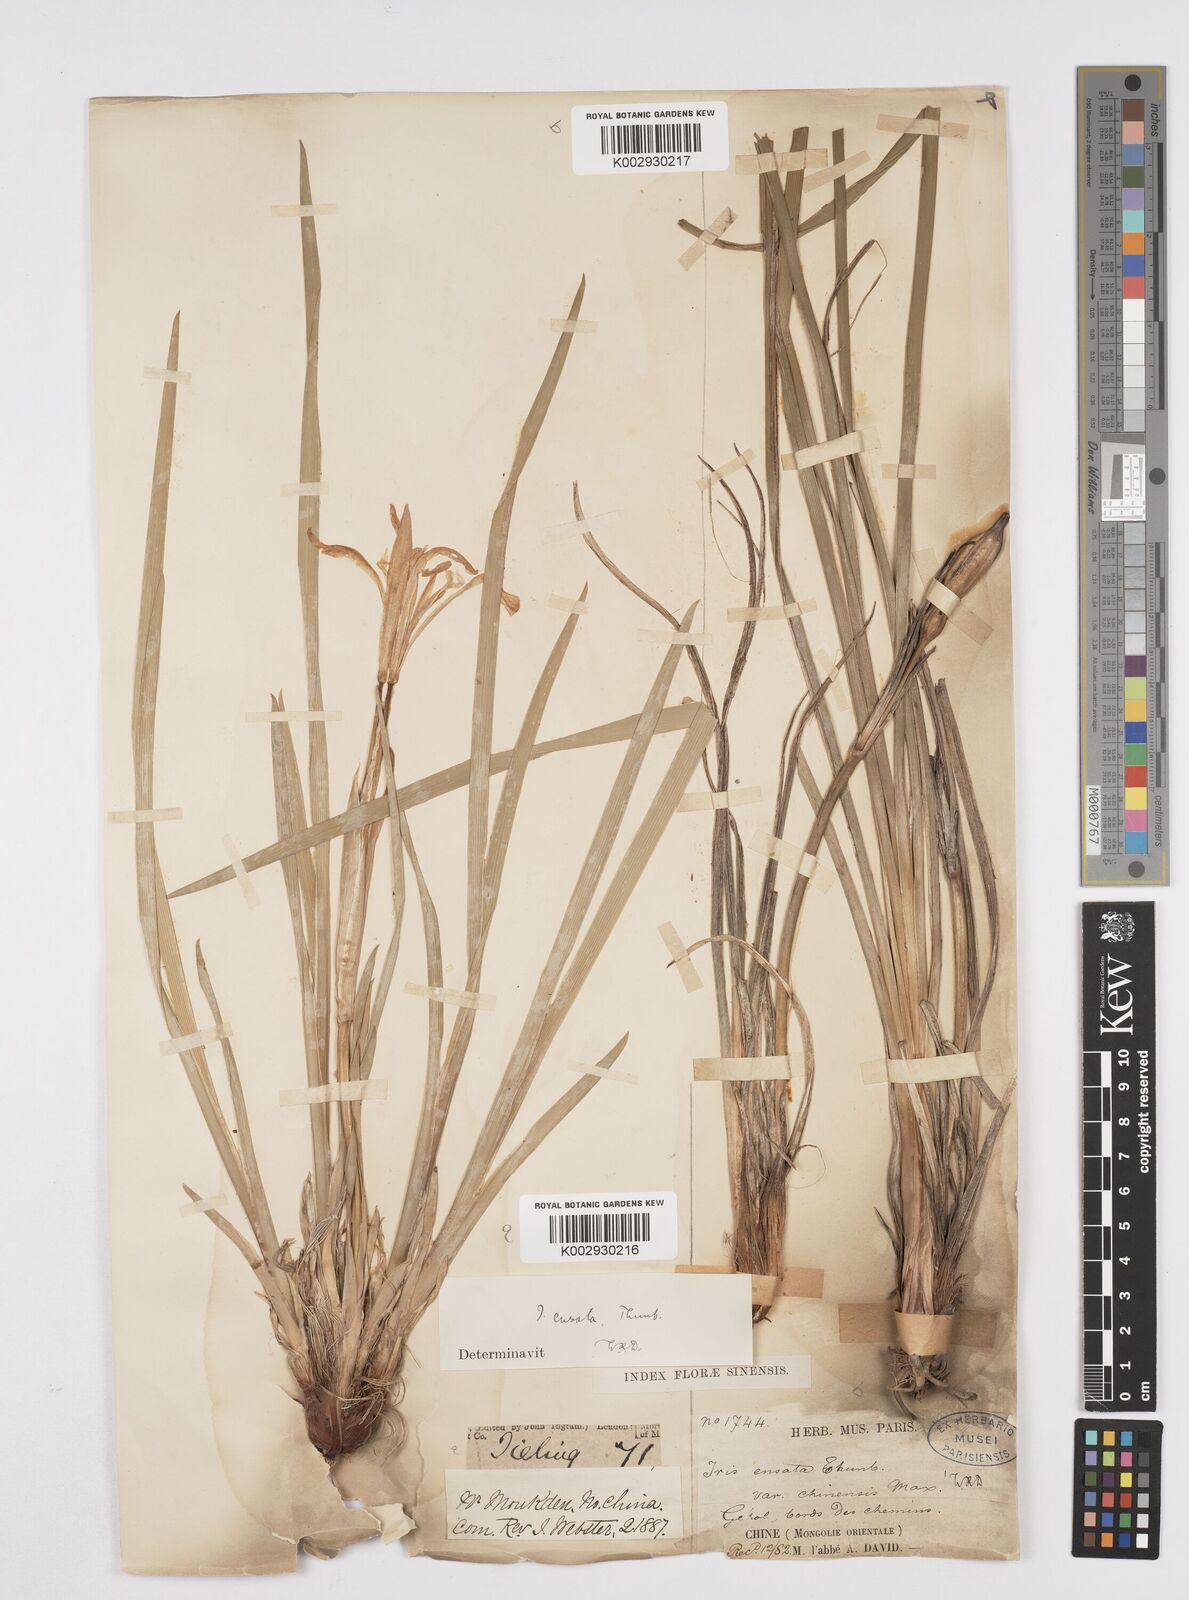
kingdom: Plantae
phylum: Tracheophyta
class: Liliopsida
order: Asparagales
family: Iridaceae
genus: Iris
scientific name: Iris lactea
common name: White-flower chinese iris
